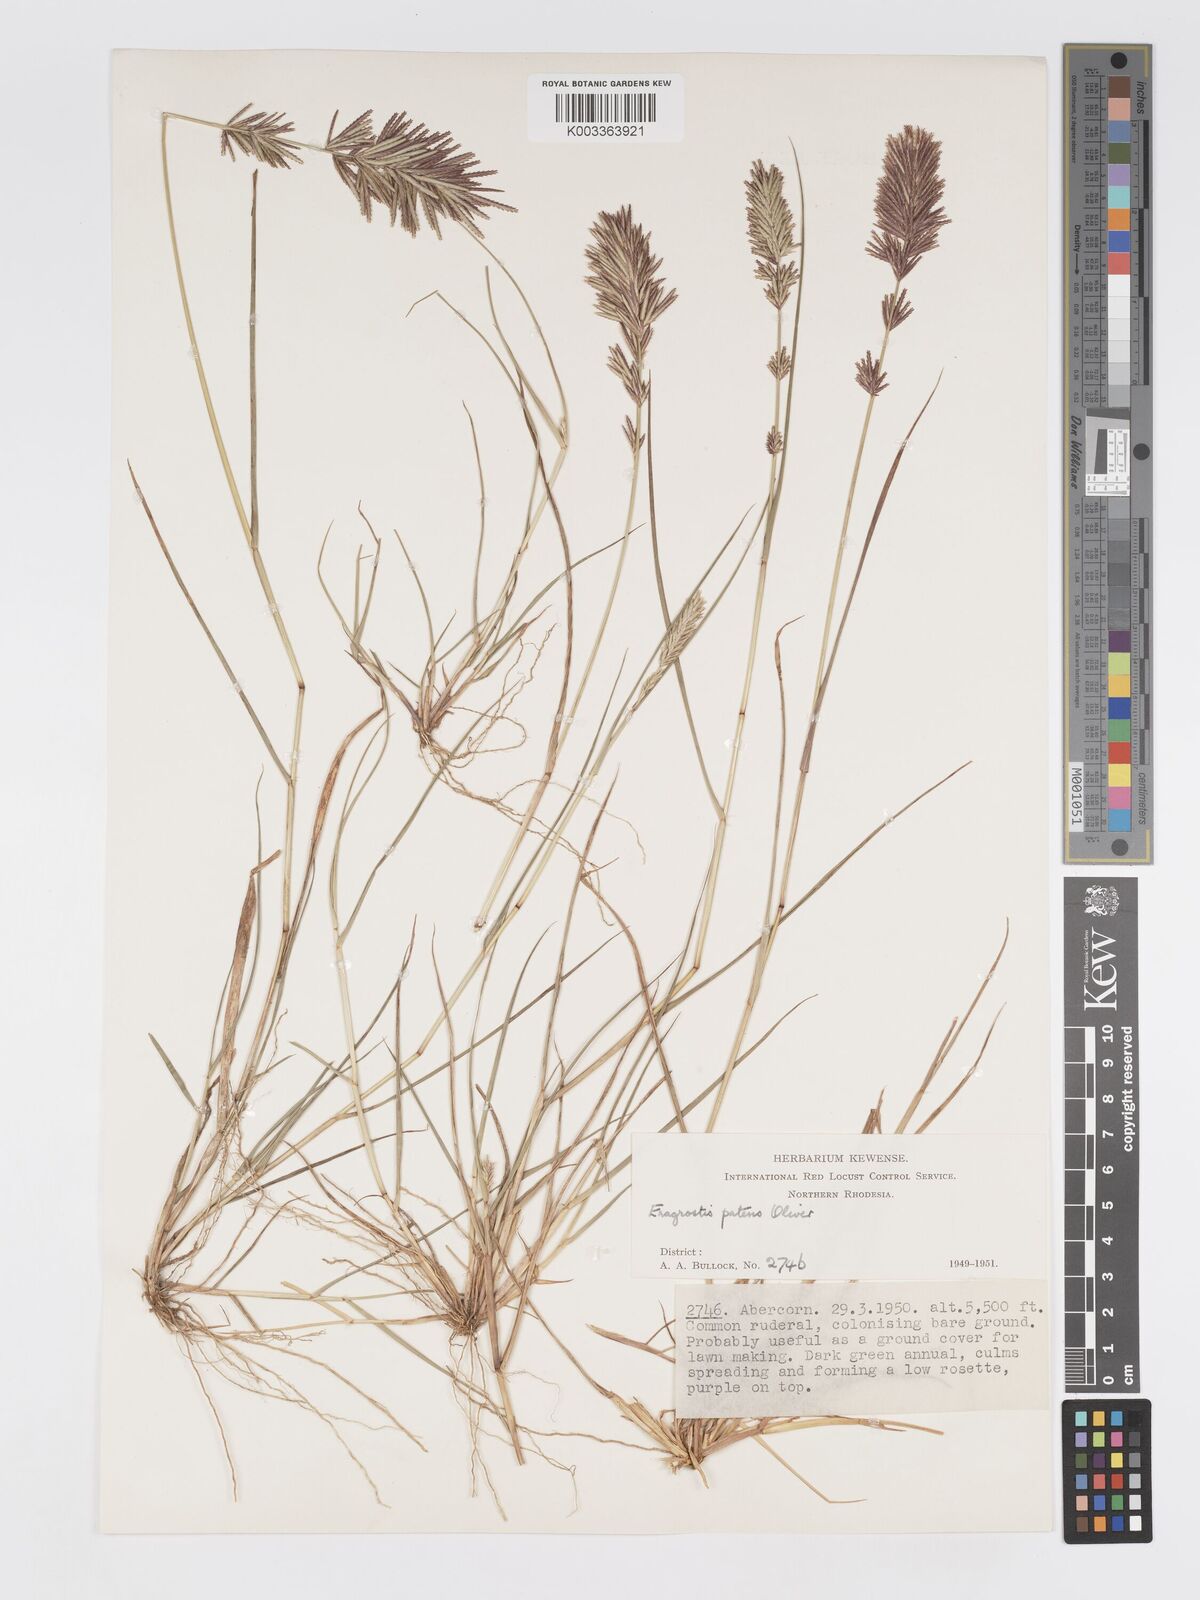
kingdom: Plantae
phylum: Tracheophyta
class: Liliopsida
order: Poales
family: Poaceae
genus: Eragrostis
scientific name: Eragrostis patens
